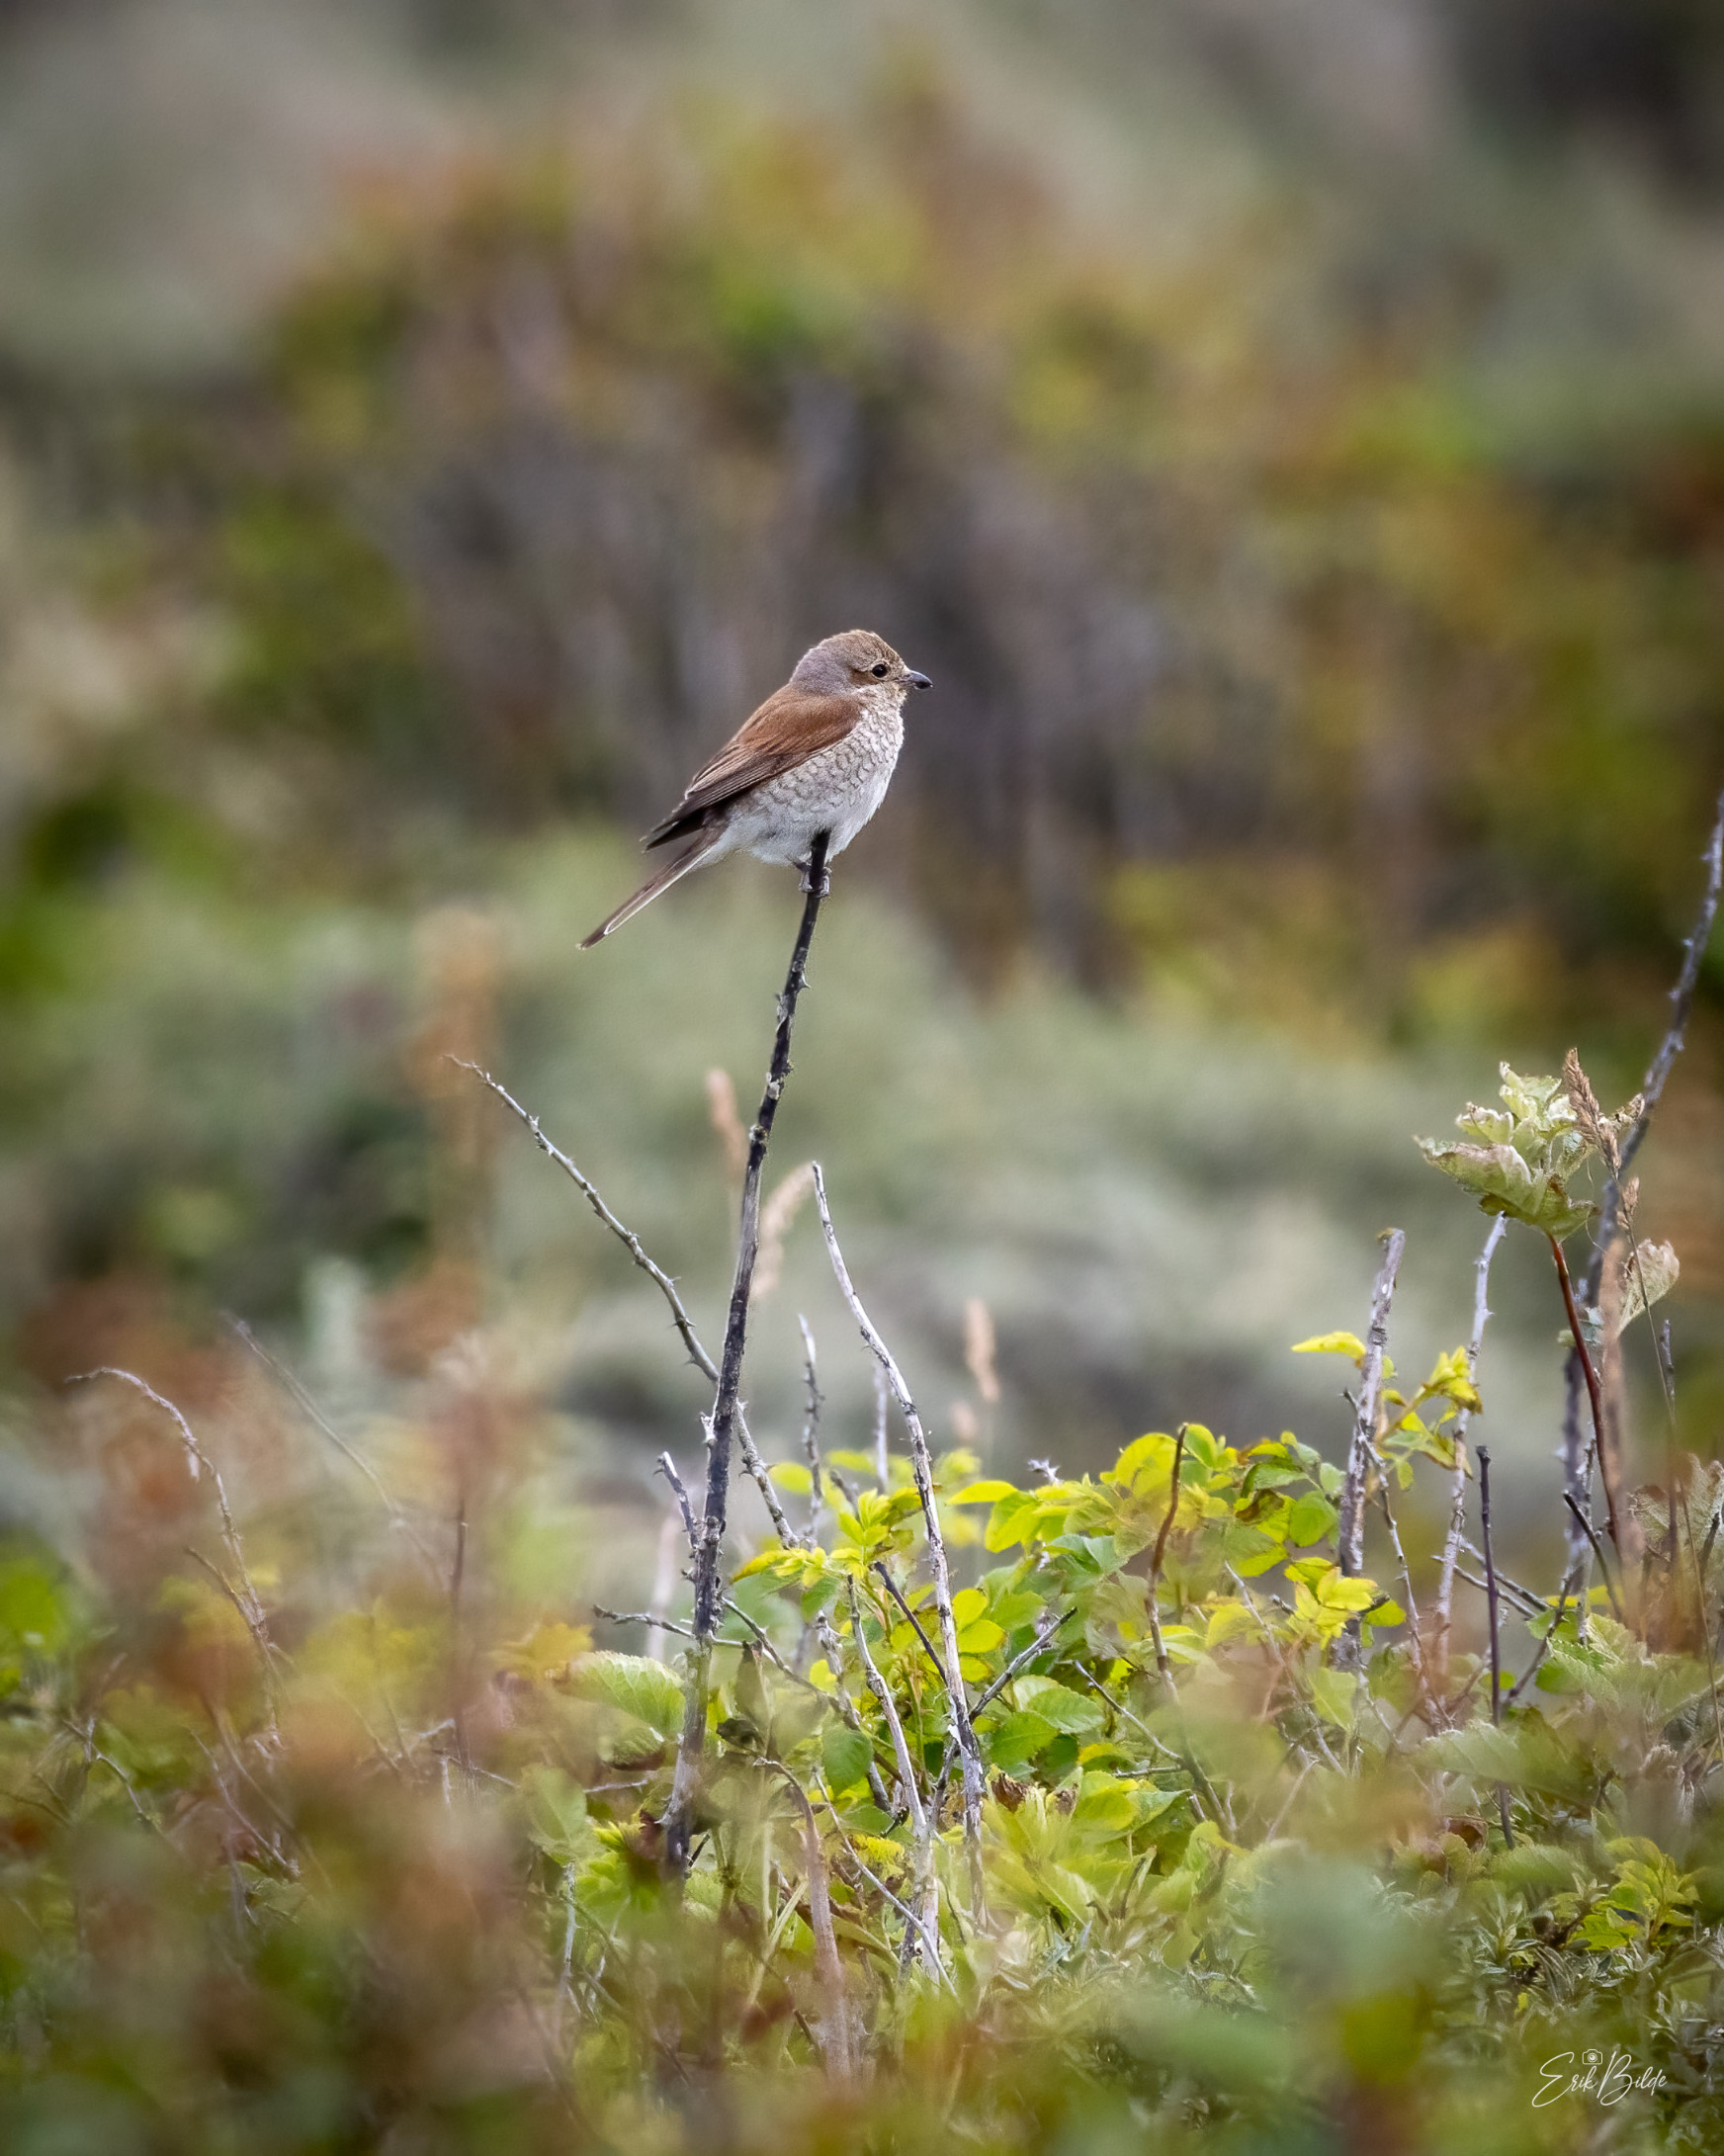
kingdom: Animalia
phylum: Chordata
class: Aves
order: Passeriformes
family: Laniidae
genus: Lanius
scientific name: Lanius collurio
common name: Rødrygget tornskade
